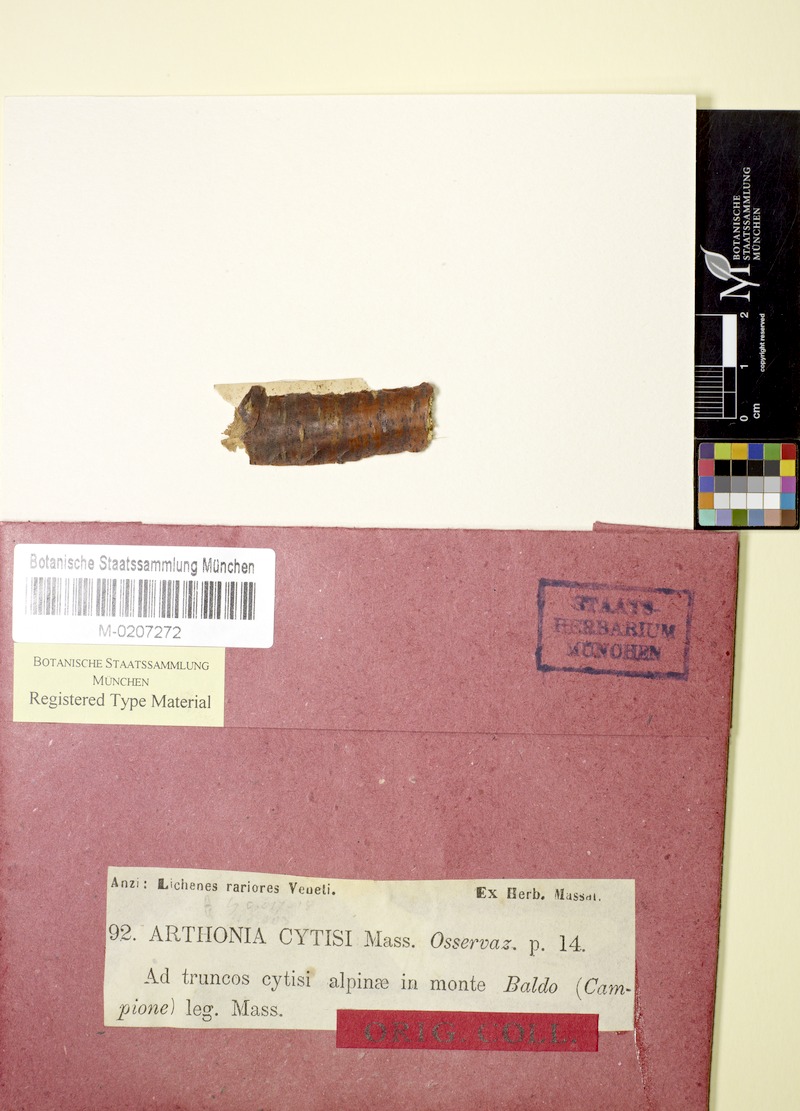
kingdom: Fungi
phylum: Ascomycota
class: Arthoniomycetes
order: Arthoniales
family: Arthoniaceae
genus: Naevia
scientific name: Naevia dispersa
